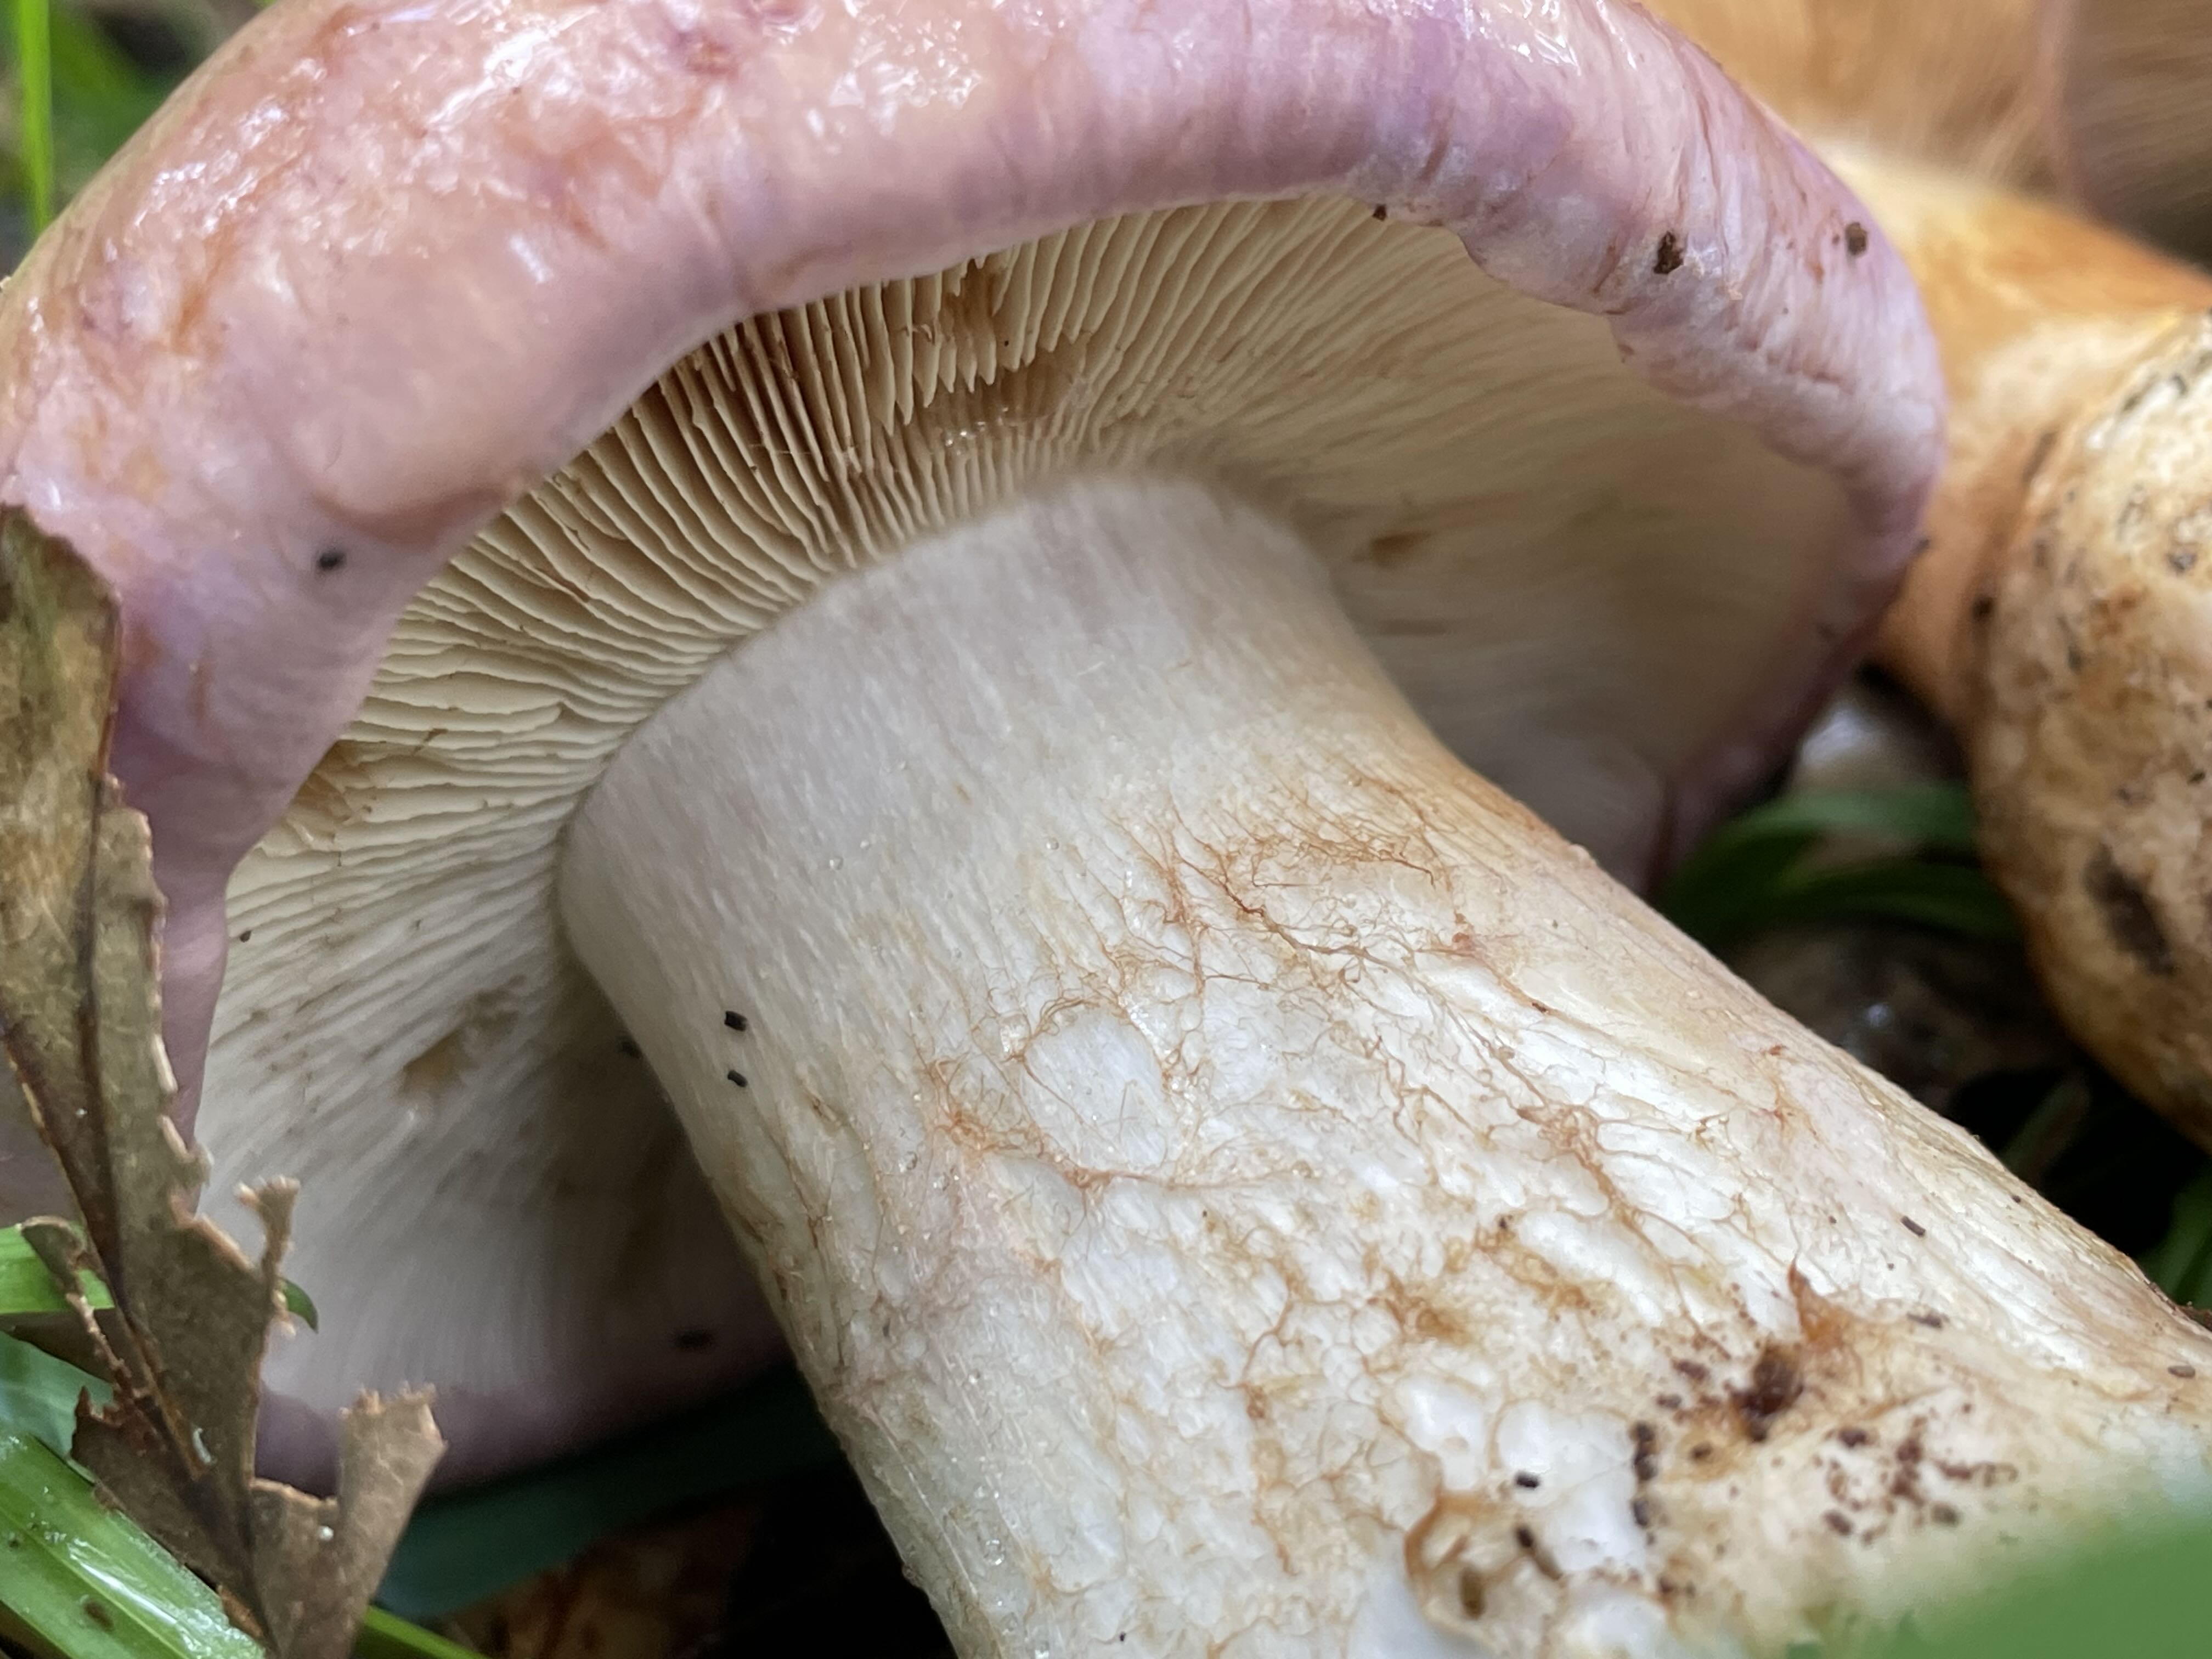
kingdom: Fungi
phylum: Basidiomycota
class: Agaricomycetes
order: Agaricales
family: Cortinariaceae
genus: Phlegmacium
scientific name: Phlegmacium balteatocumatile
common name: violettrådet slørhat
